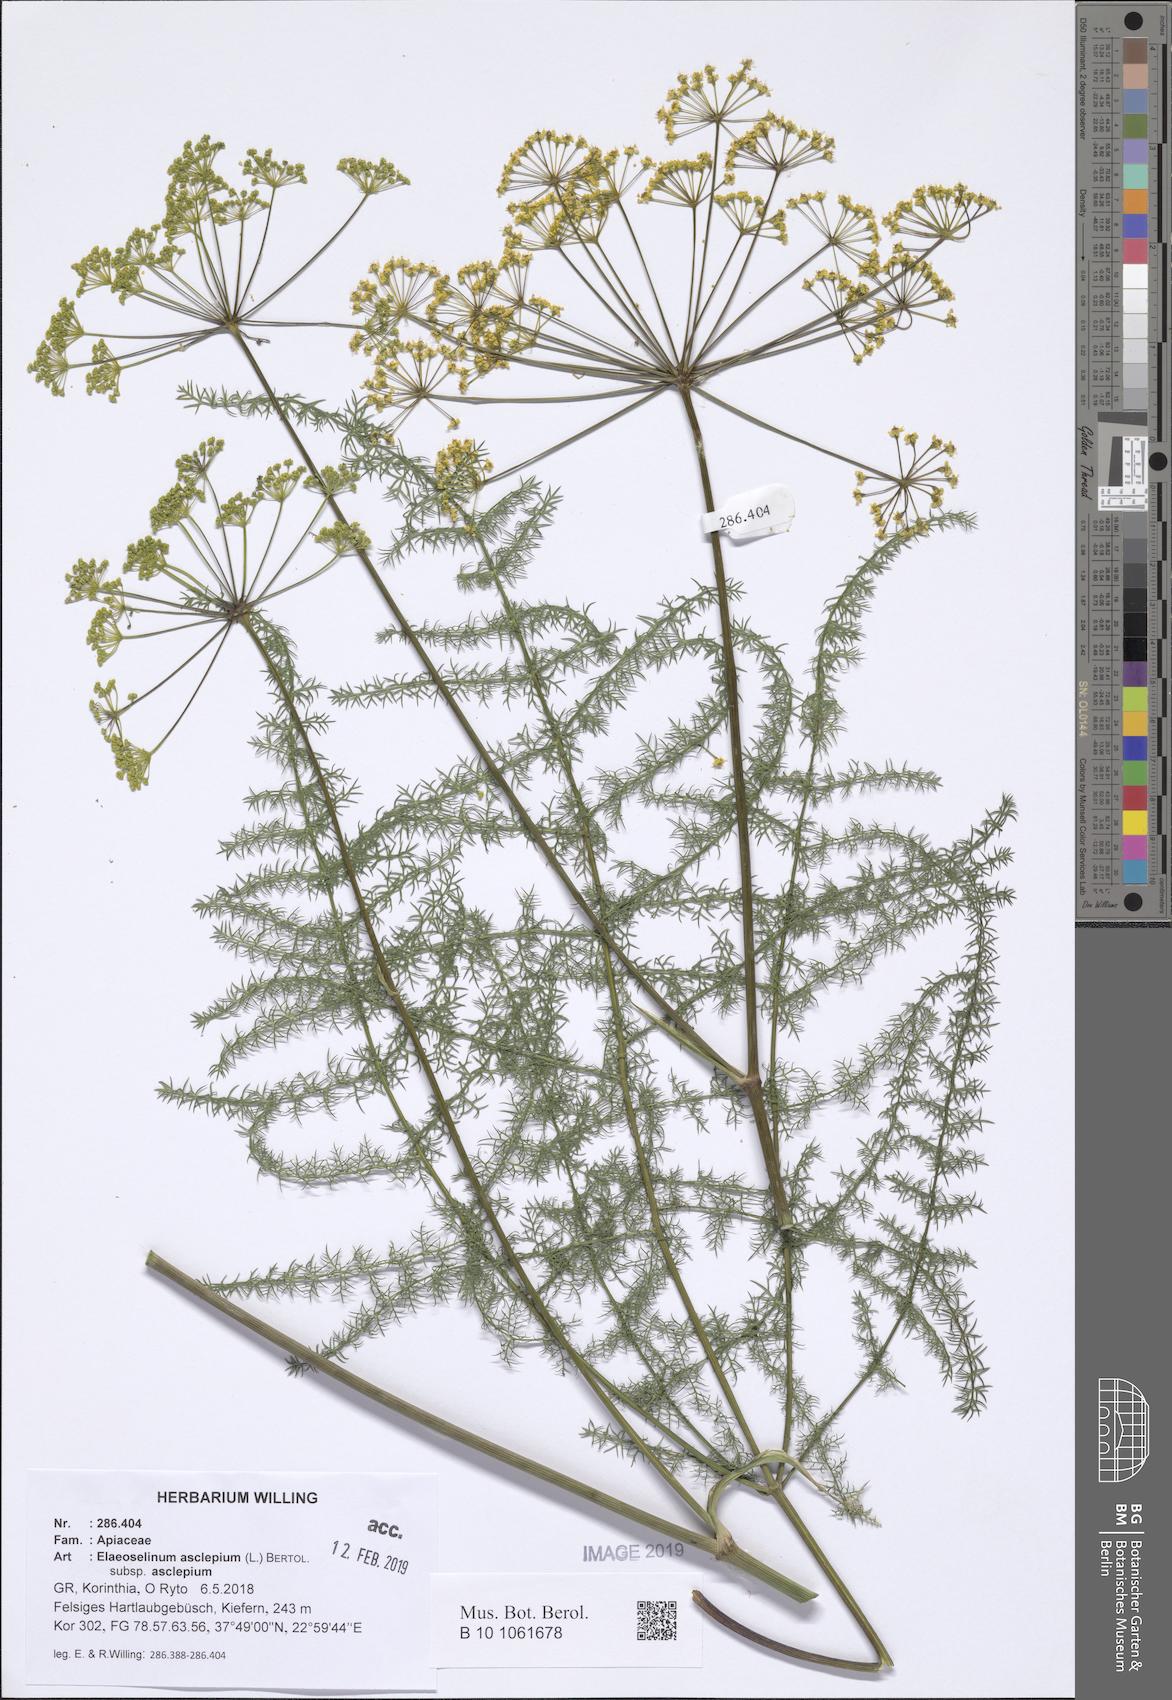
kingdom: Plantae
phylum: Tracheophyta
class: Magnoliopsida
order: Apiales
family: Apiaceae
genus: Thapsia
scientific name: Thapsia asclepium
